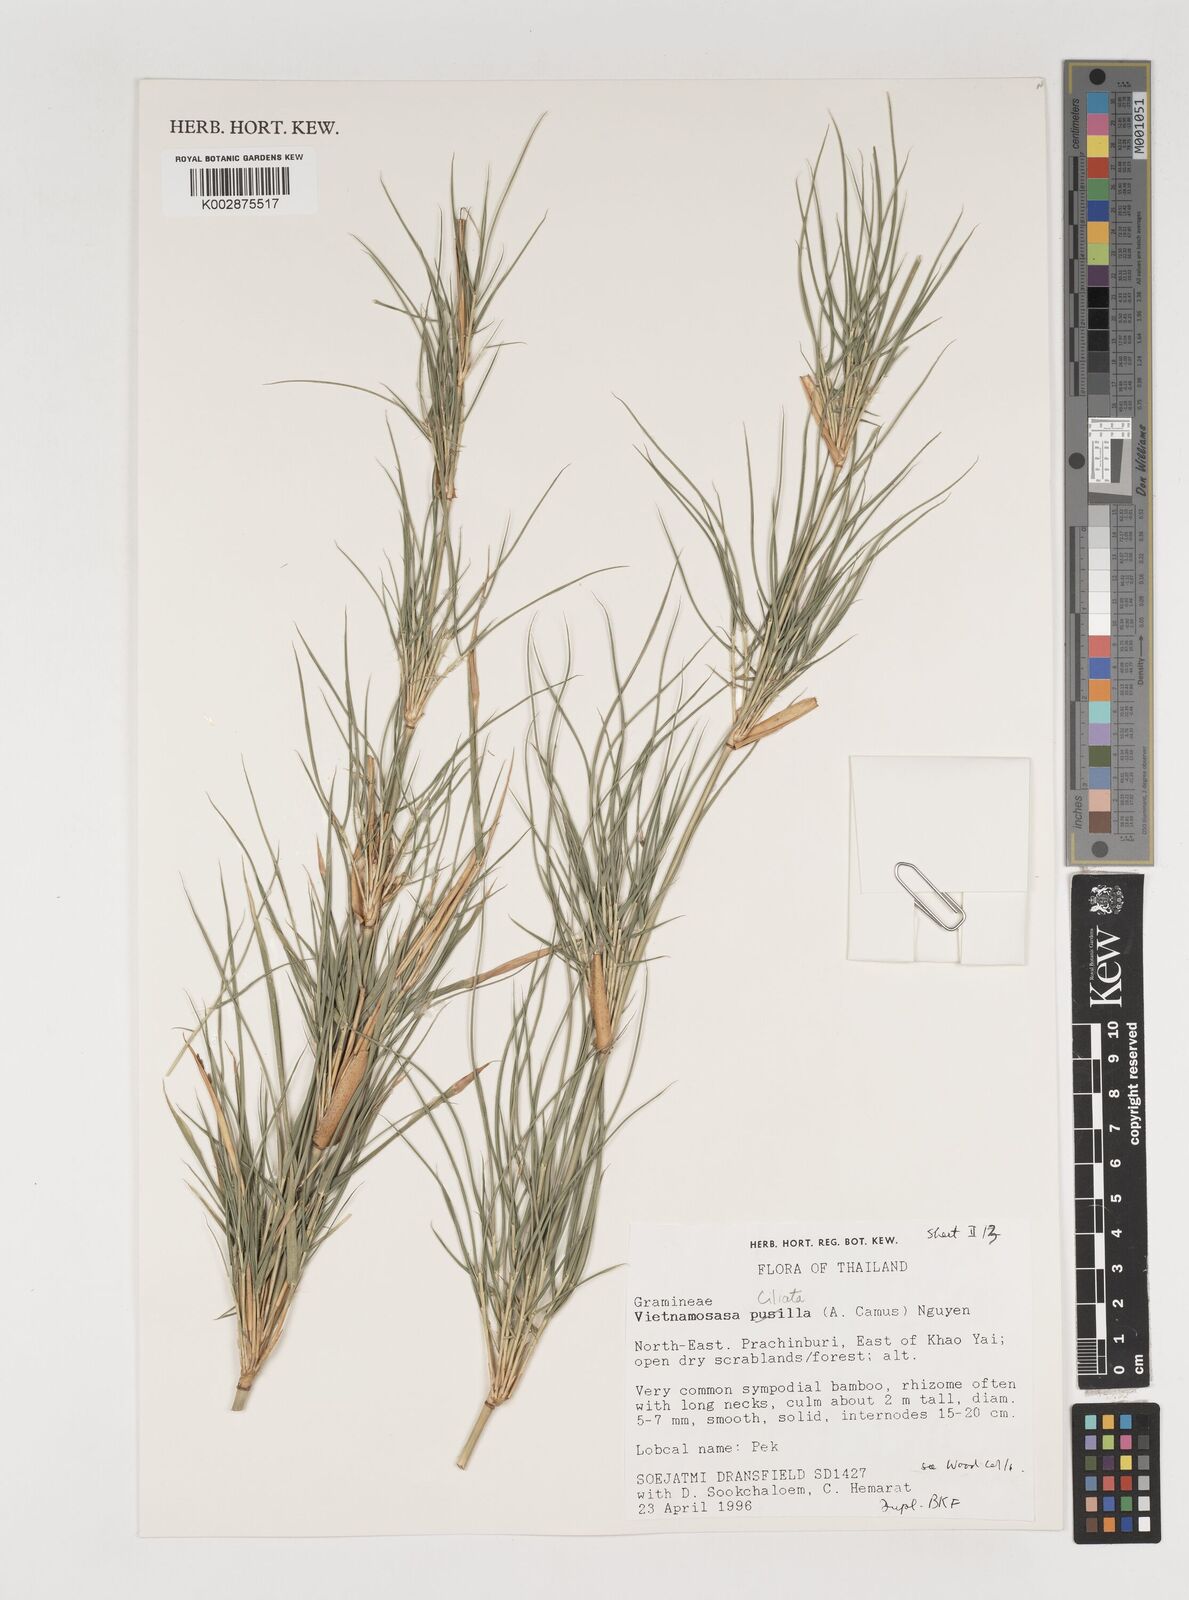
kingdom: Plantae
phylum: Tracheophyta
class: Liliopsida
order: Poales
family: Poaceae
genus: Vietnamosasa
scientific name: Vietnamosasa
